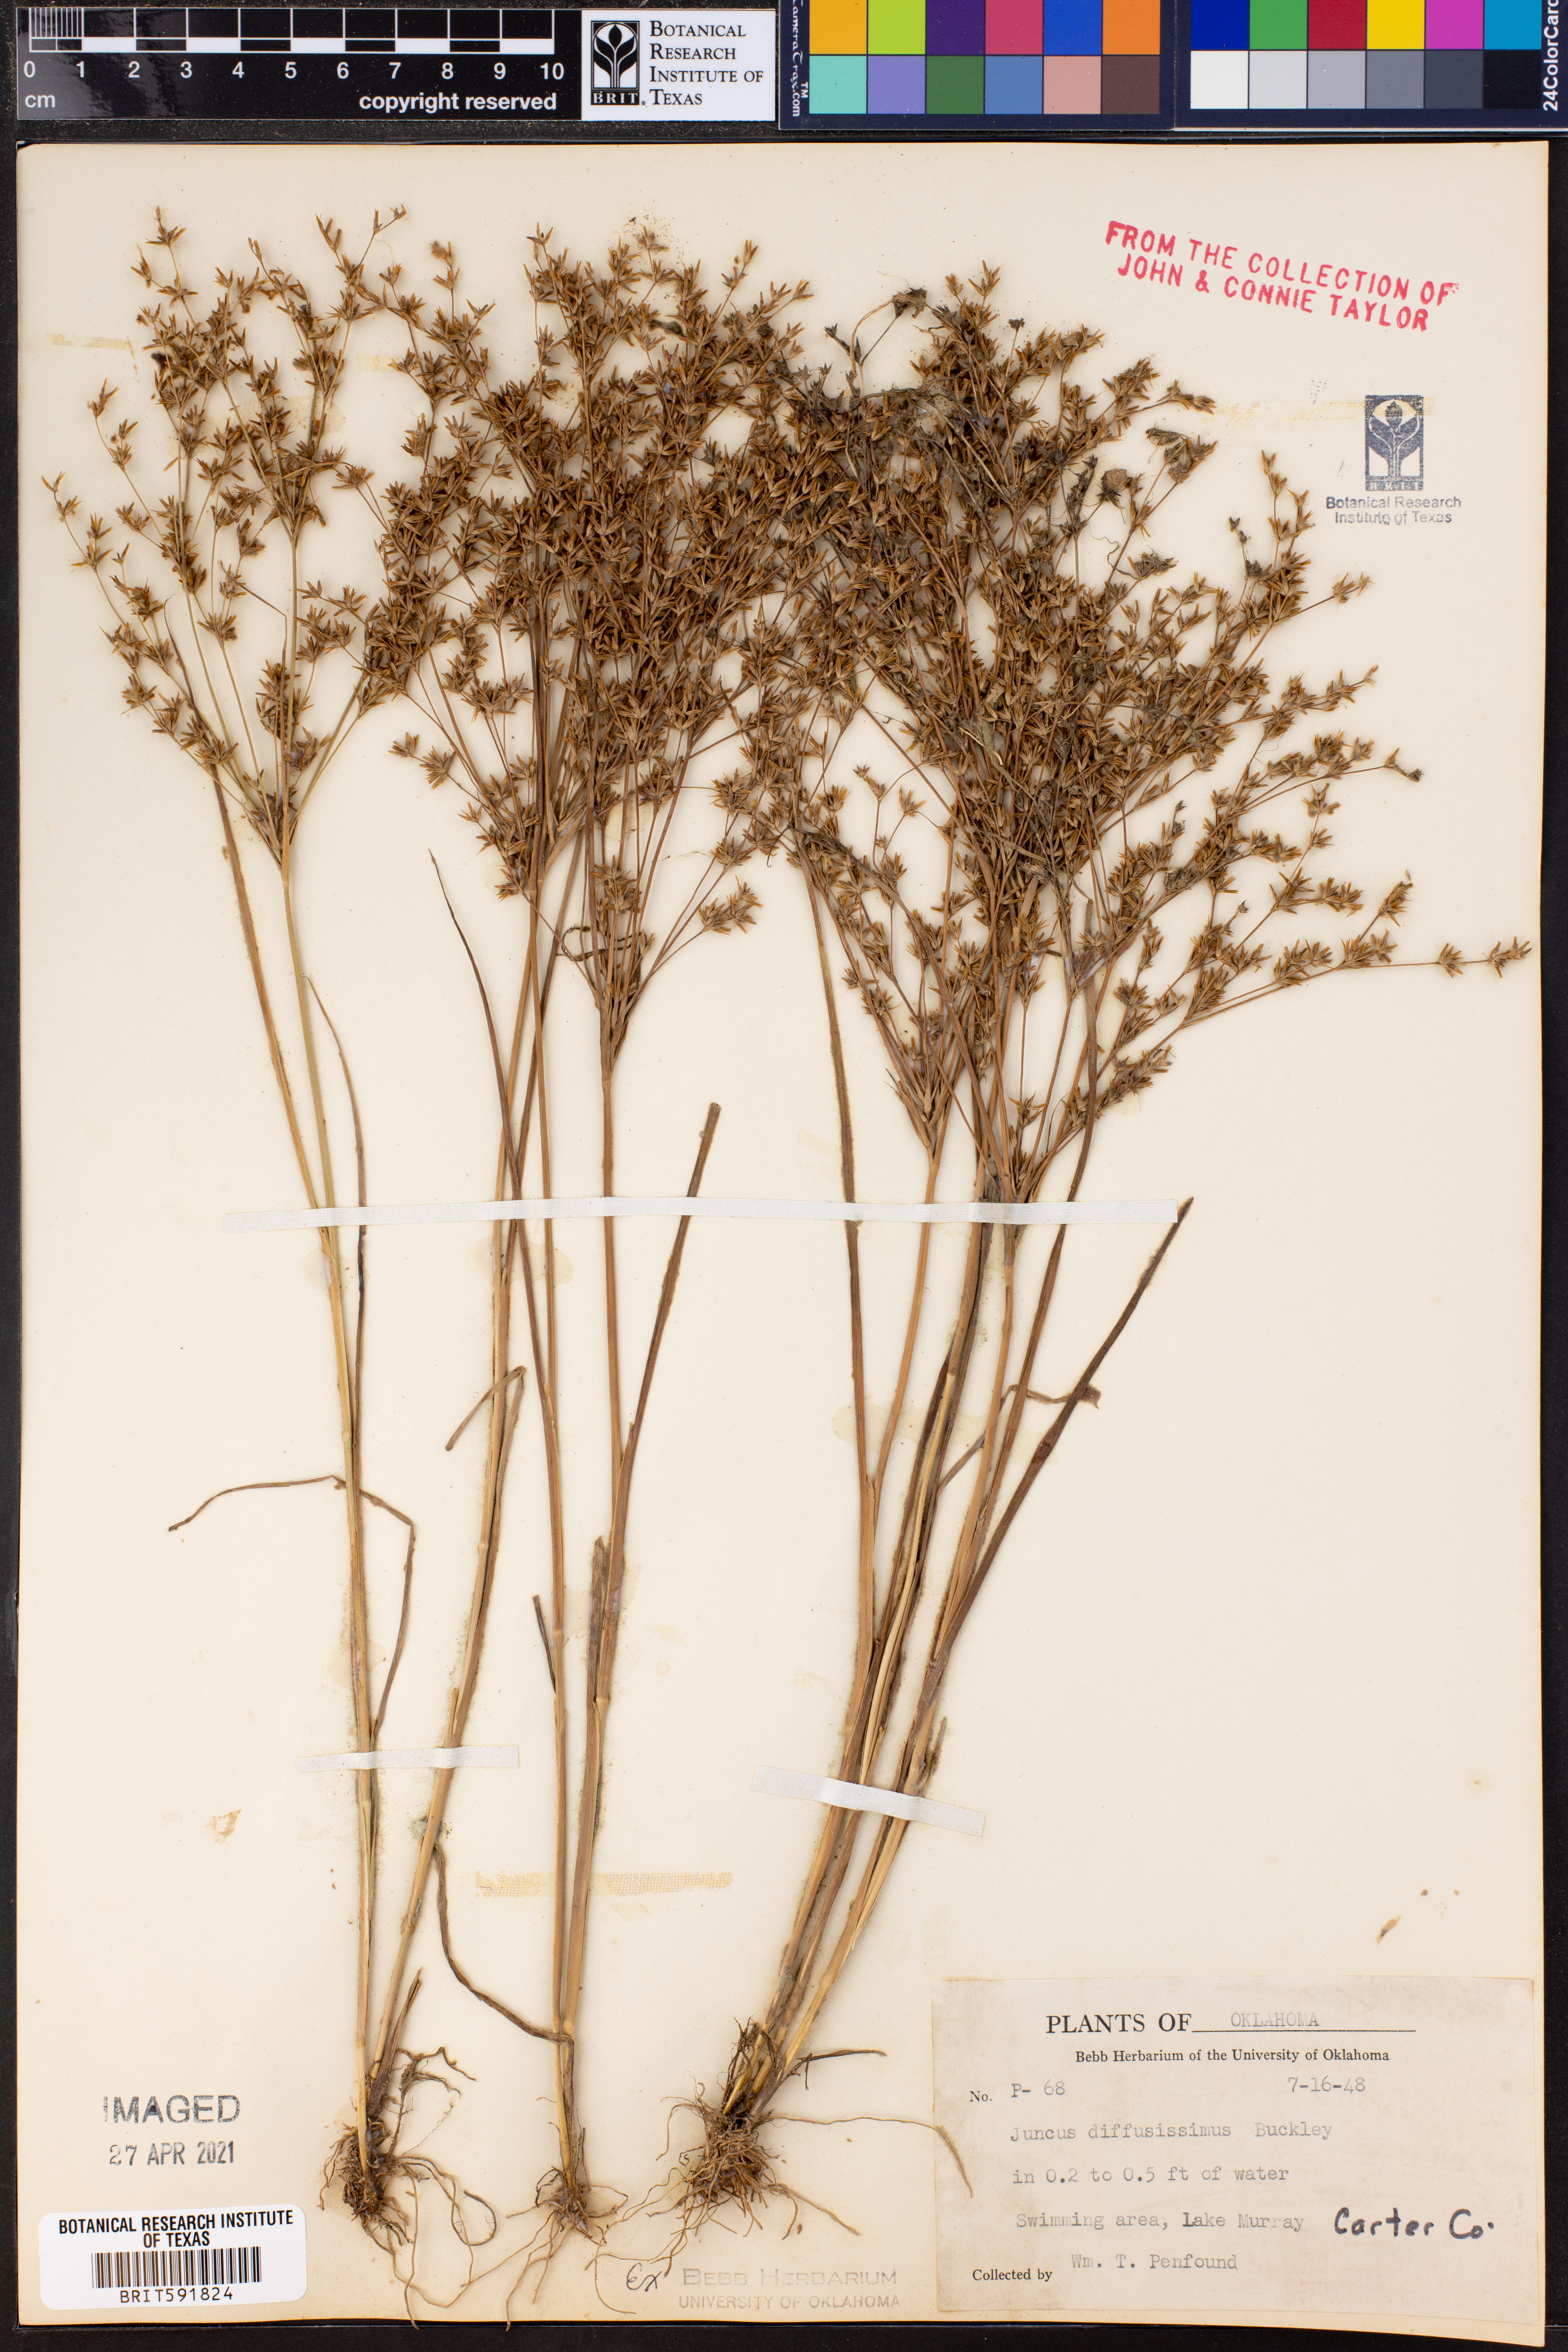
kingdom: Plantae
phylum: Tracheophyta
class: Liliopsida
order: Poales
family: Juncaceae
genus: Juncus
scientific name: Juncus diffusissimus
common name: Slimpod rush
